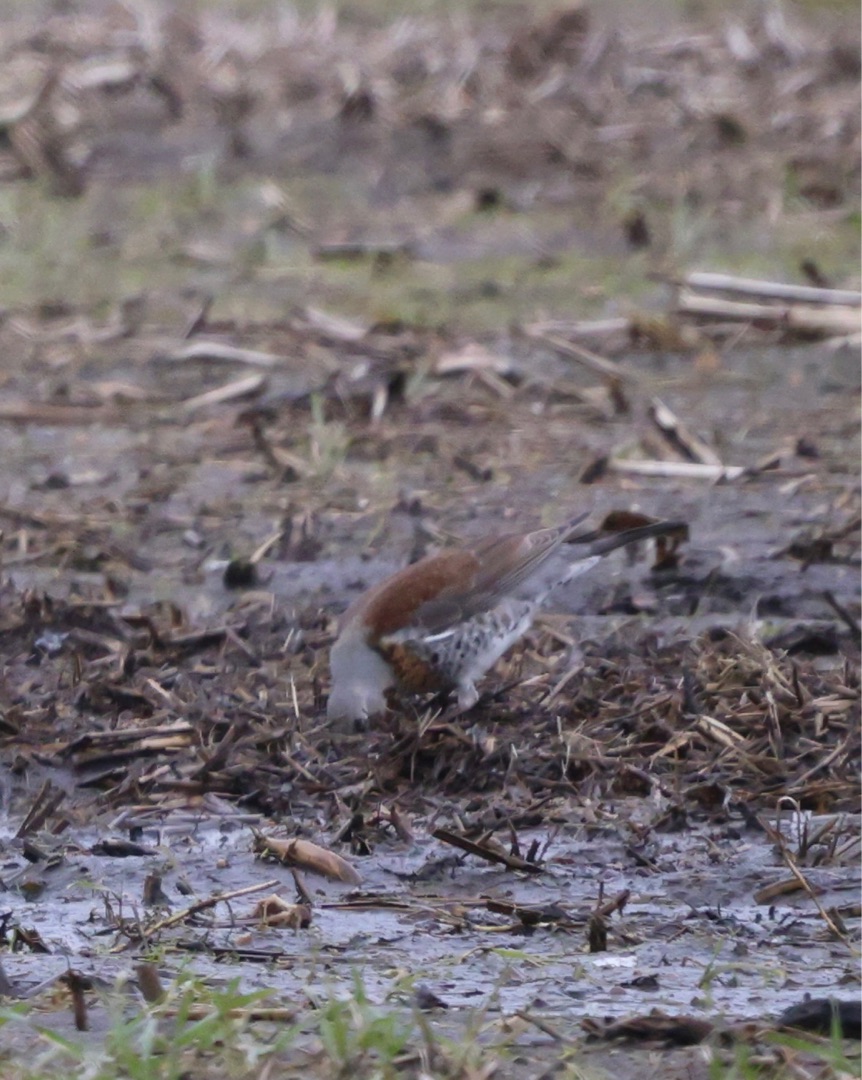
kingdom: Animalia
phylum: Chordata
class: Aves
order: Passeriformes
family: Turdidae
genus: Turdus
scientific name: Turdus pilaris
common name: Sjagger
